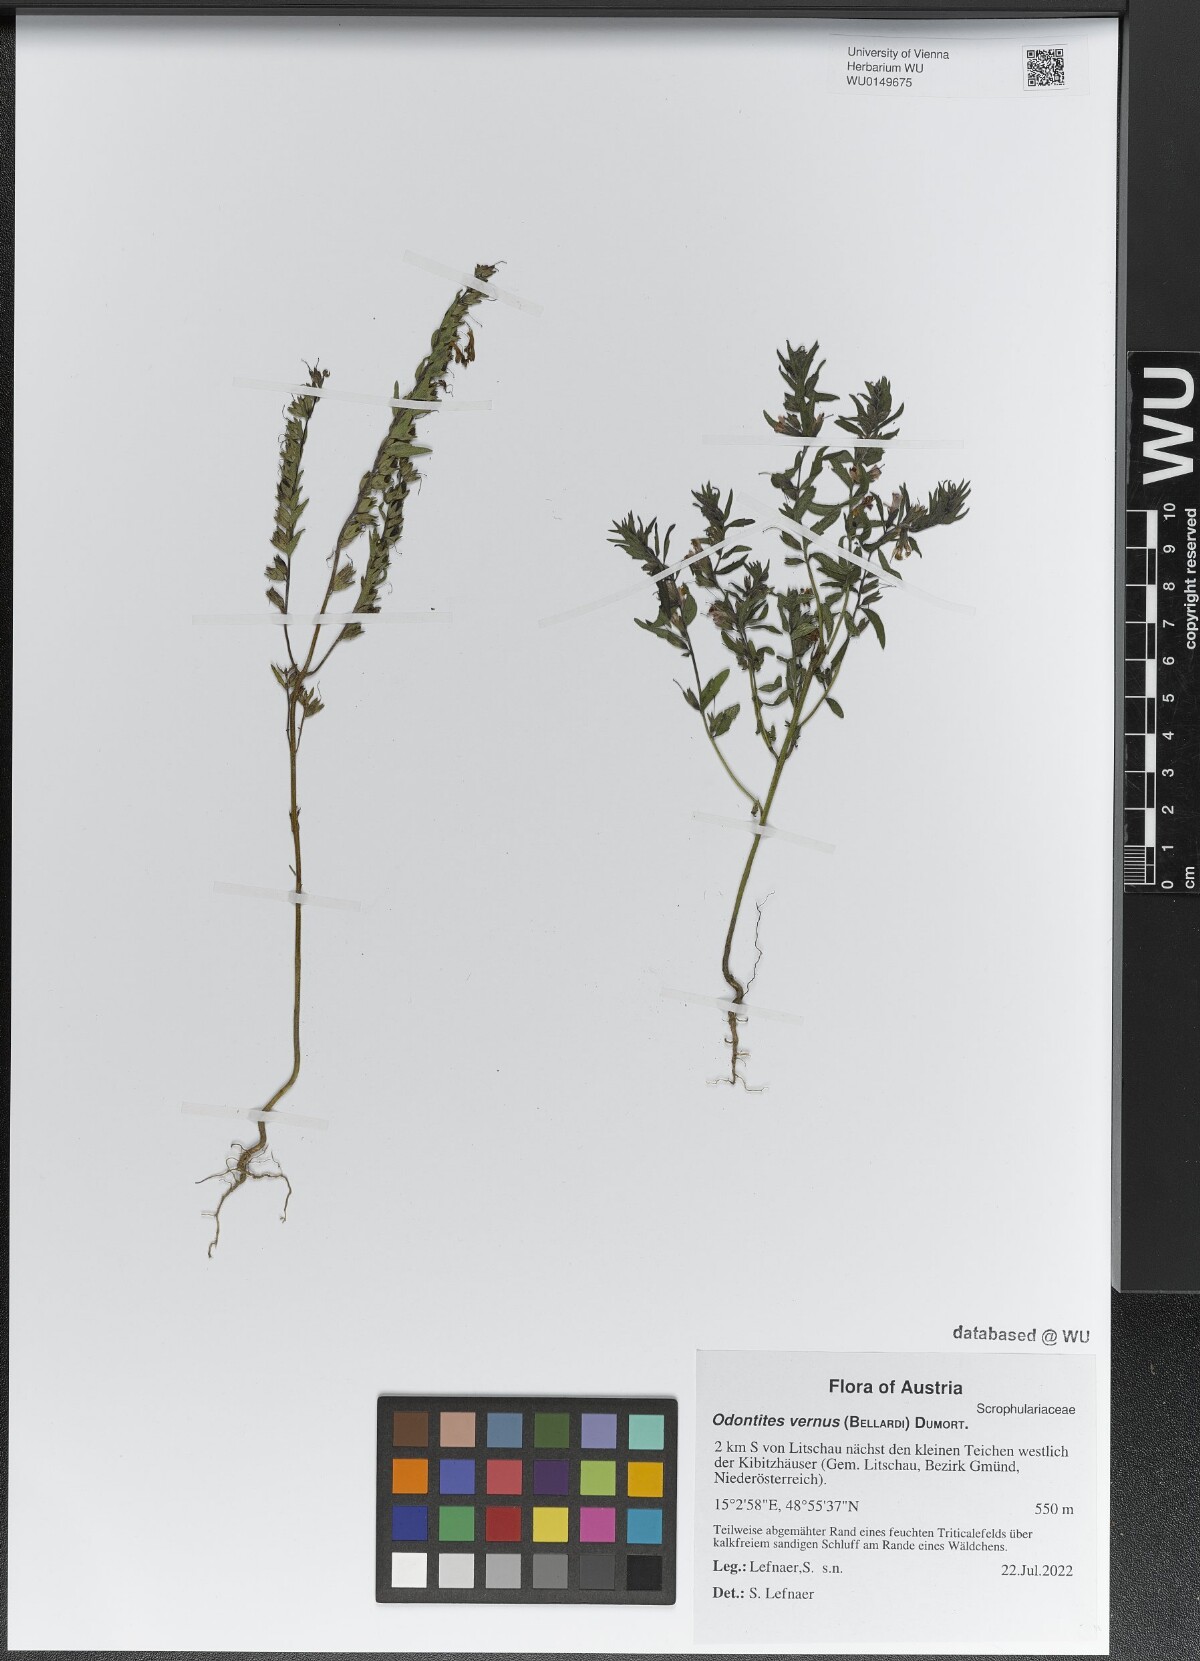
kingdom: Plantae
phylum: Tracheophyta
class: Magnoliopsida
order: Lamiales
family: Orobanchaceae
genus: Odontites
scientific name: Odontites vernus
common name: Red bartsia
